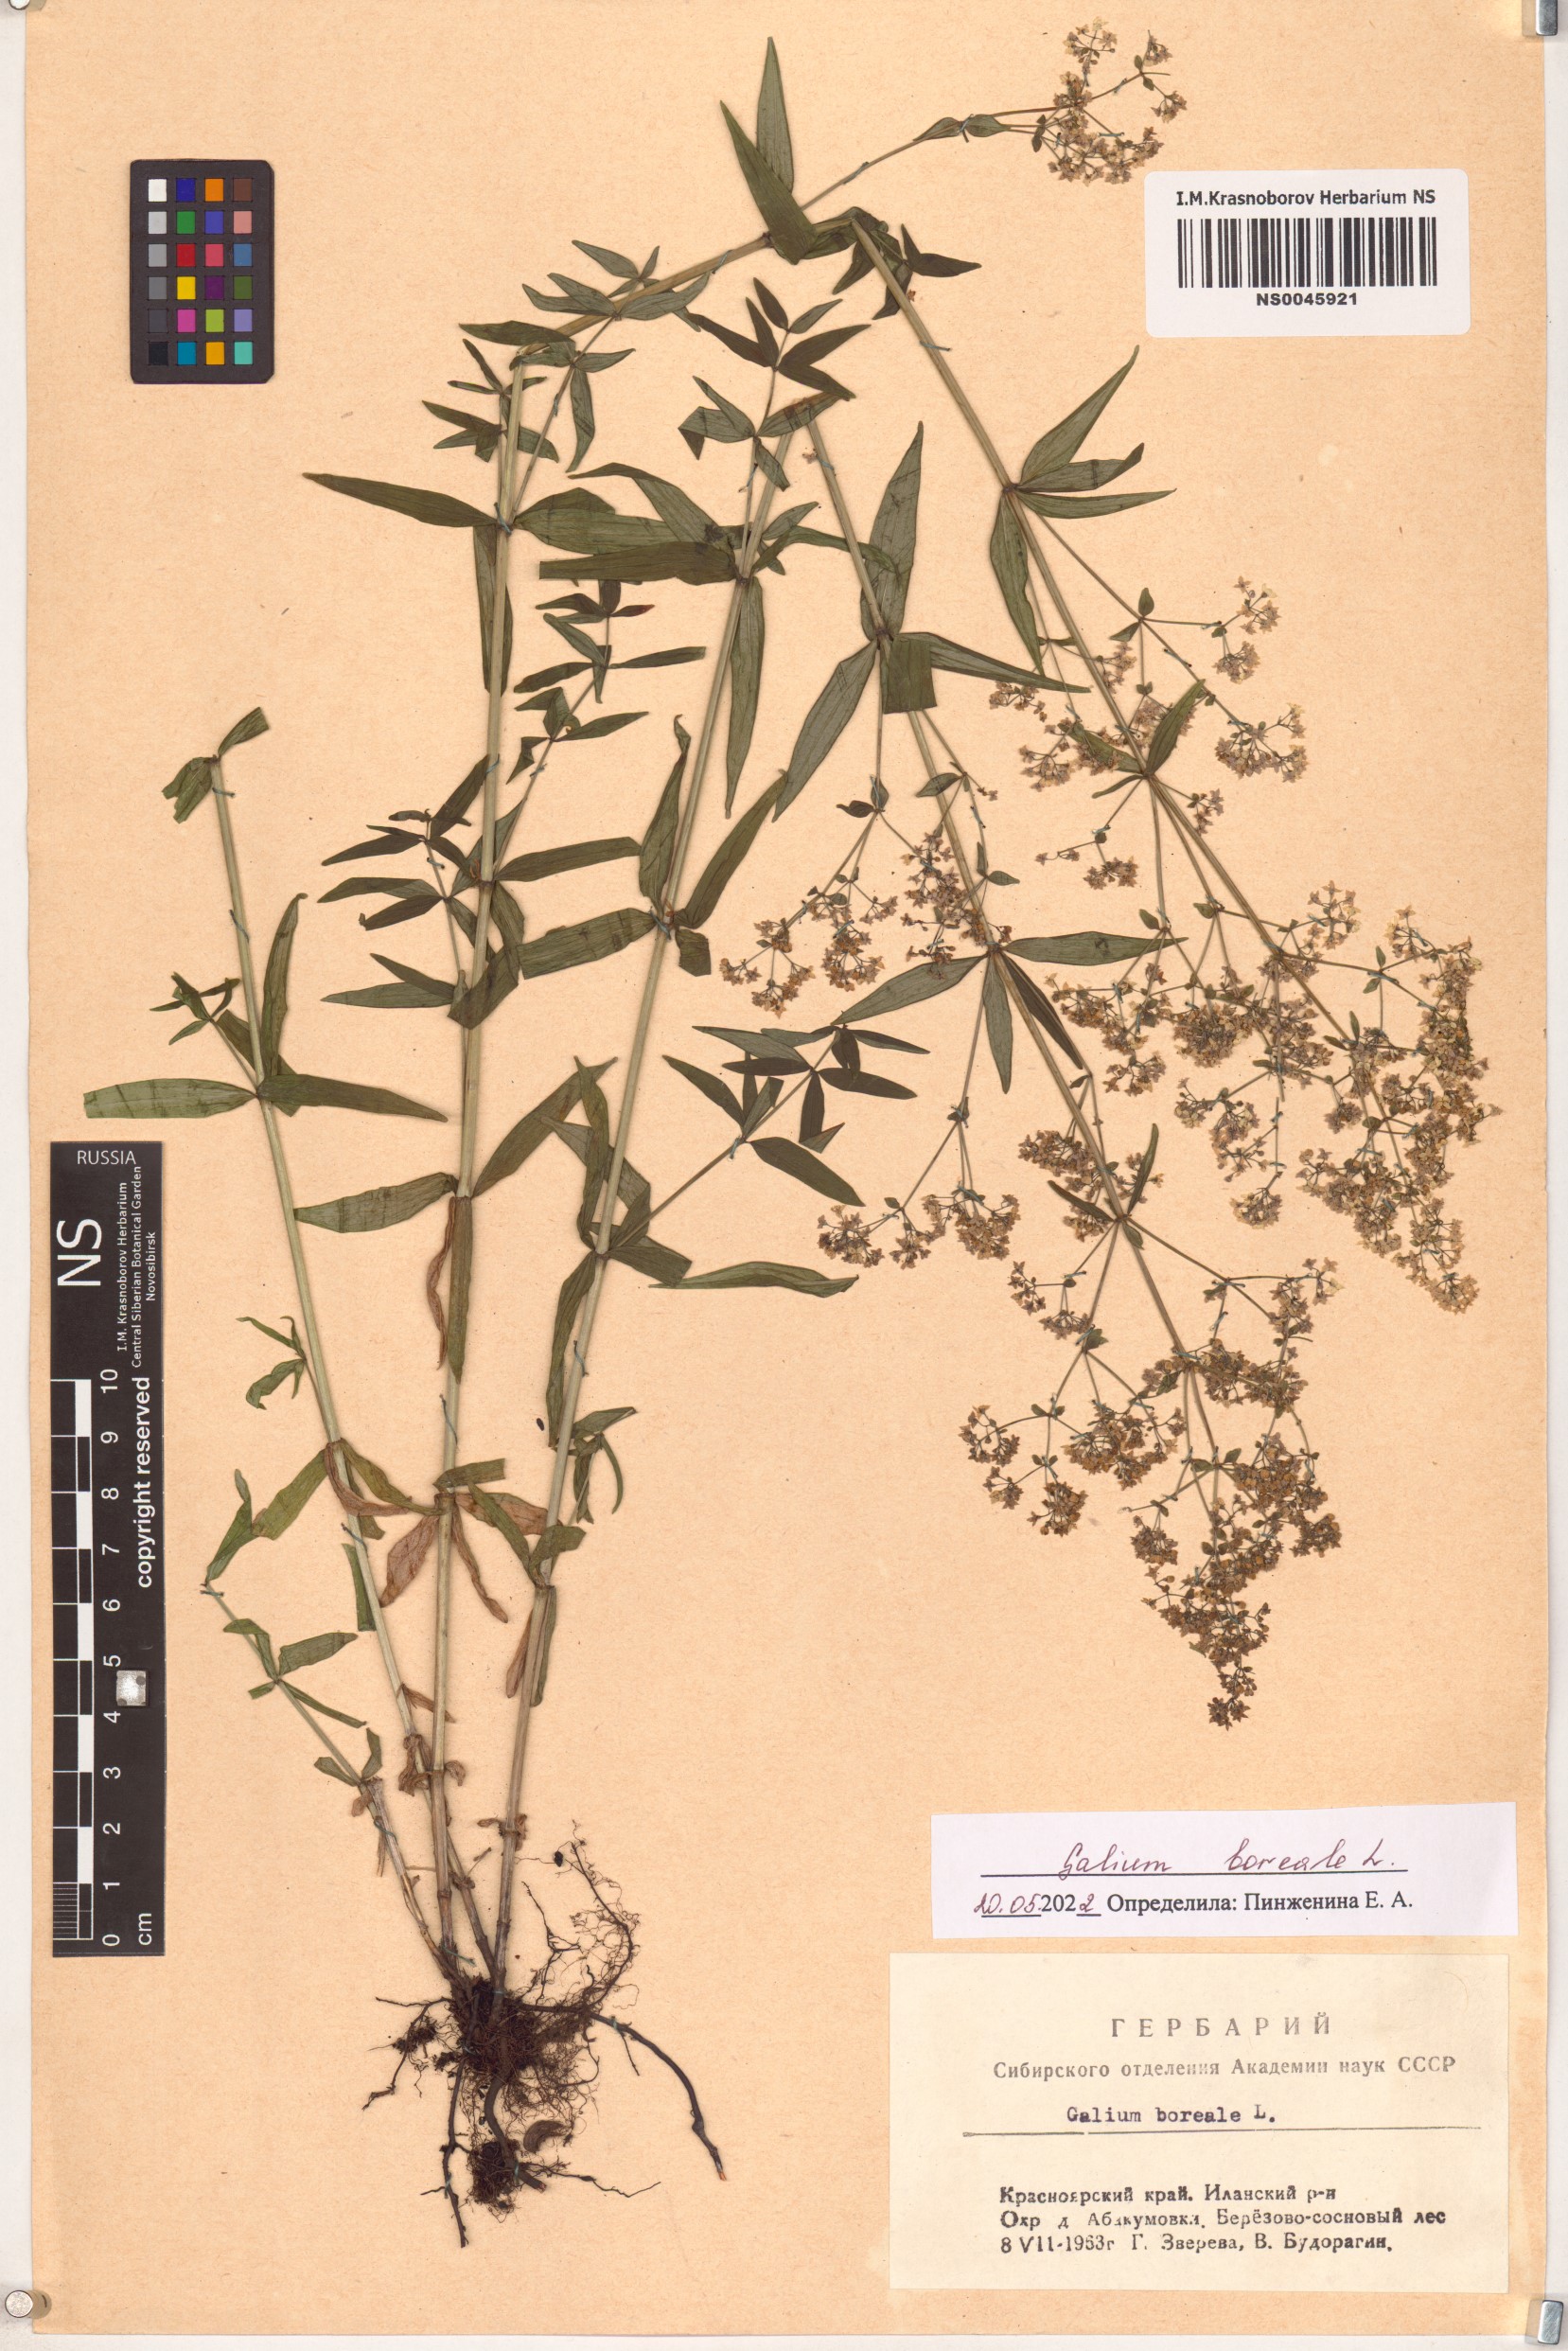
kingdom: Plantae
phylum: Tracheophyta
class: Magnoliopsida
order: Gentianales
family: Rubiaceae
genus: Galium
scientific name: Galium boreale
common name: Northern bedstraw
